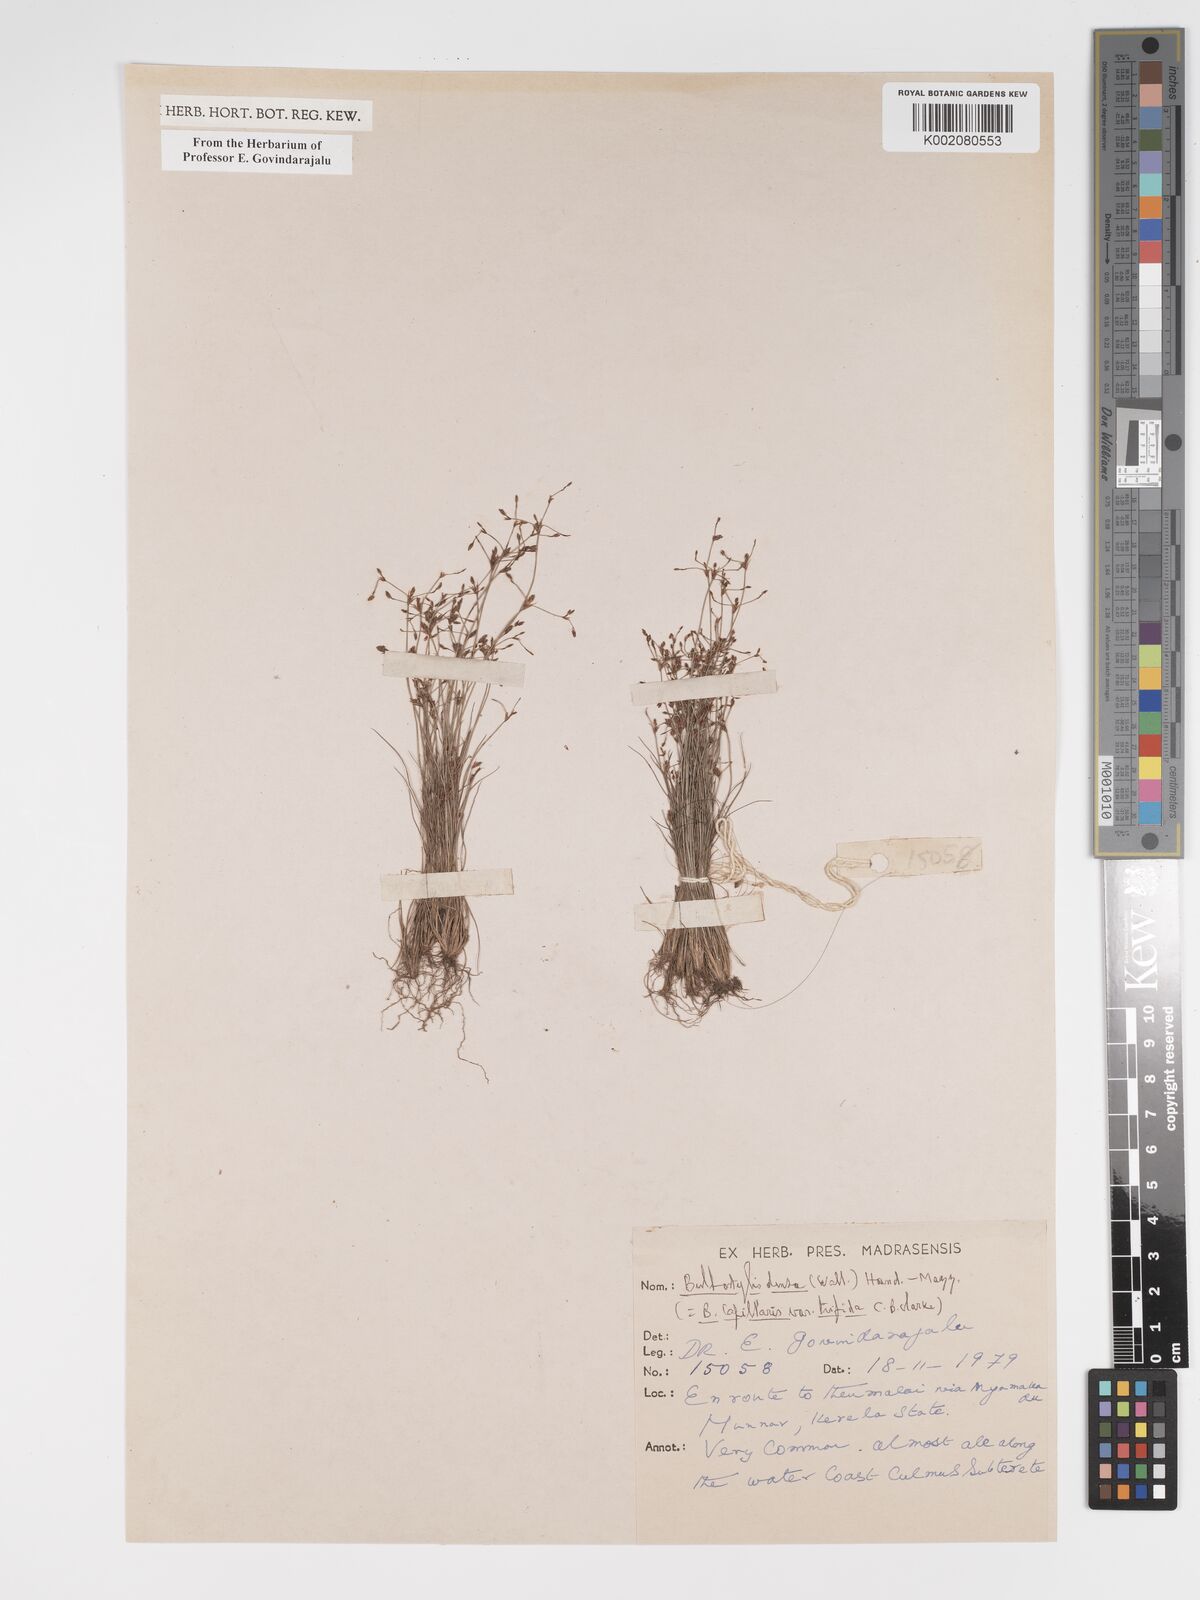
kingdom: Plantae
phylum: Tracheophyta
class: Liliopsida
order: Poales
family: Cyperaceae
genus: Bulbostylis
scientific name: Bulbostylis densa
